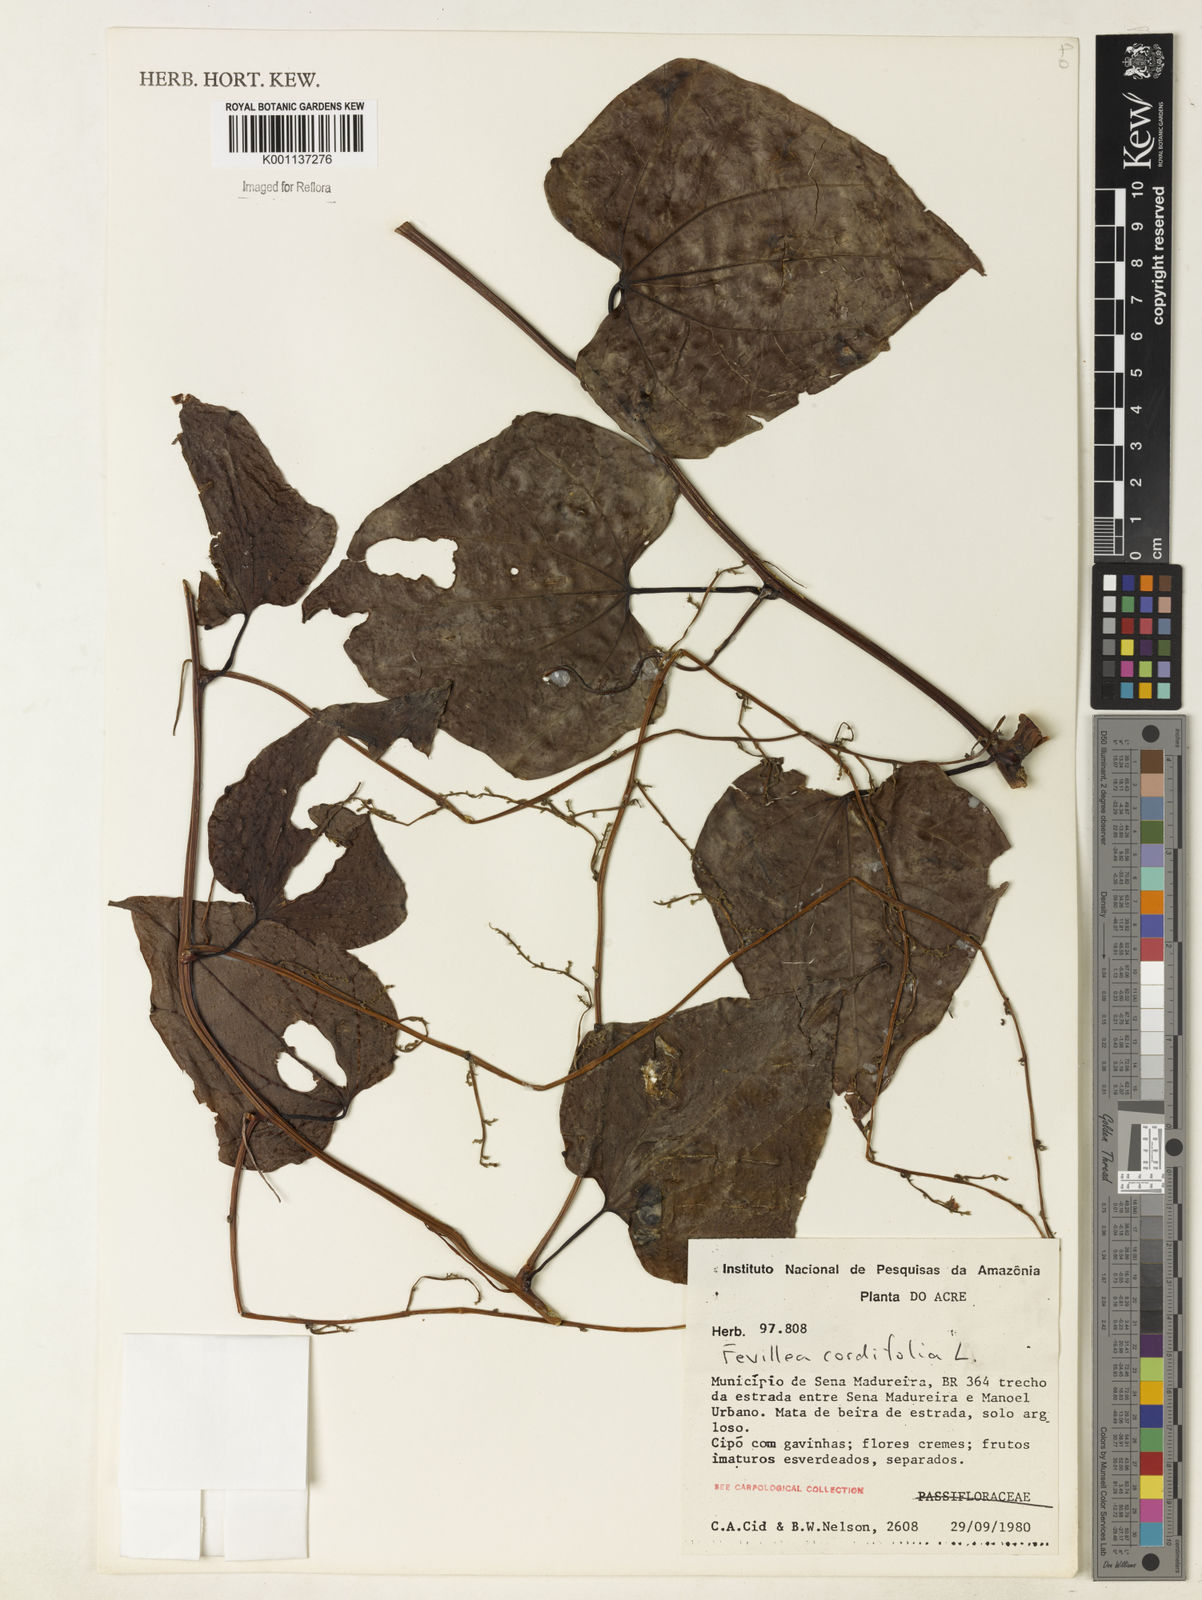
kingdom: Plantae
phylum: Tracheophyta
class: Magnoliopsida
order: Cucurbitales
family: Cucurbitaceae
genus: Fevillea
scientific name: Fevillea cordifolia
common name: Antidote-vine
